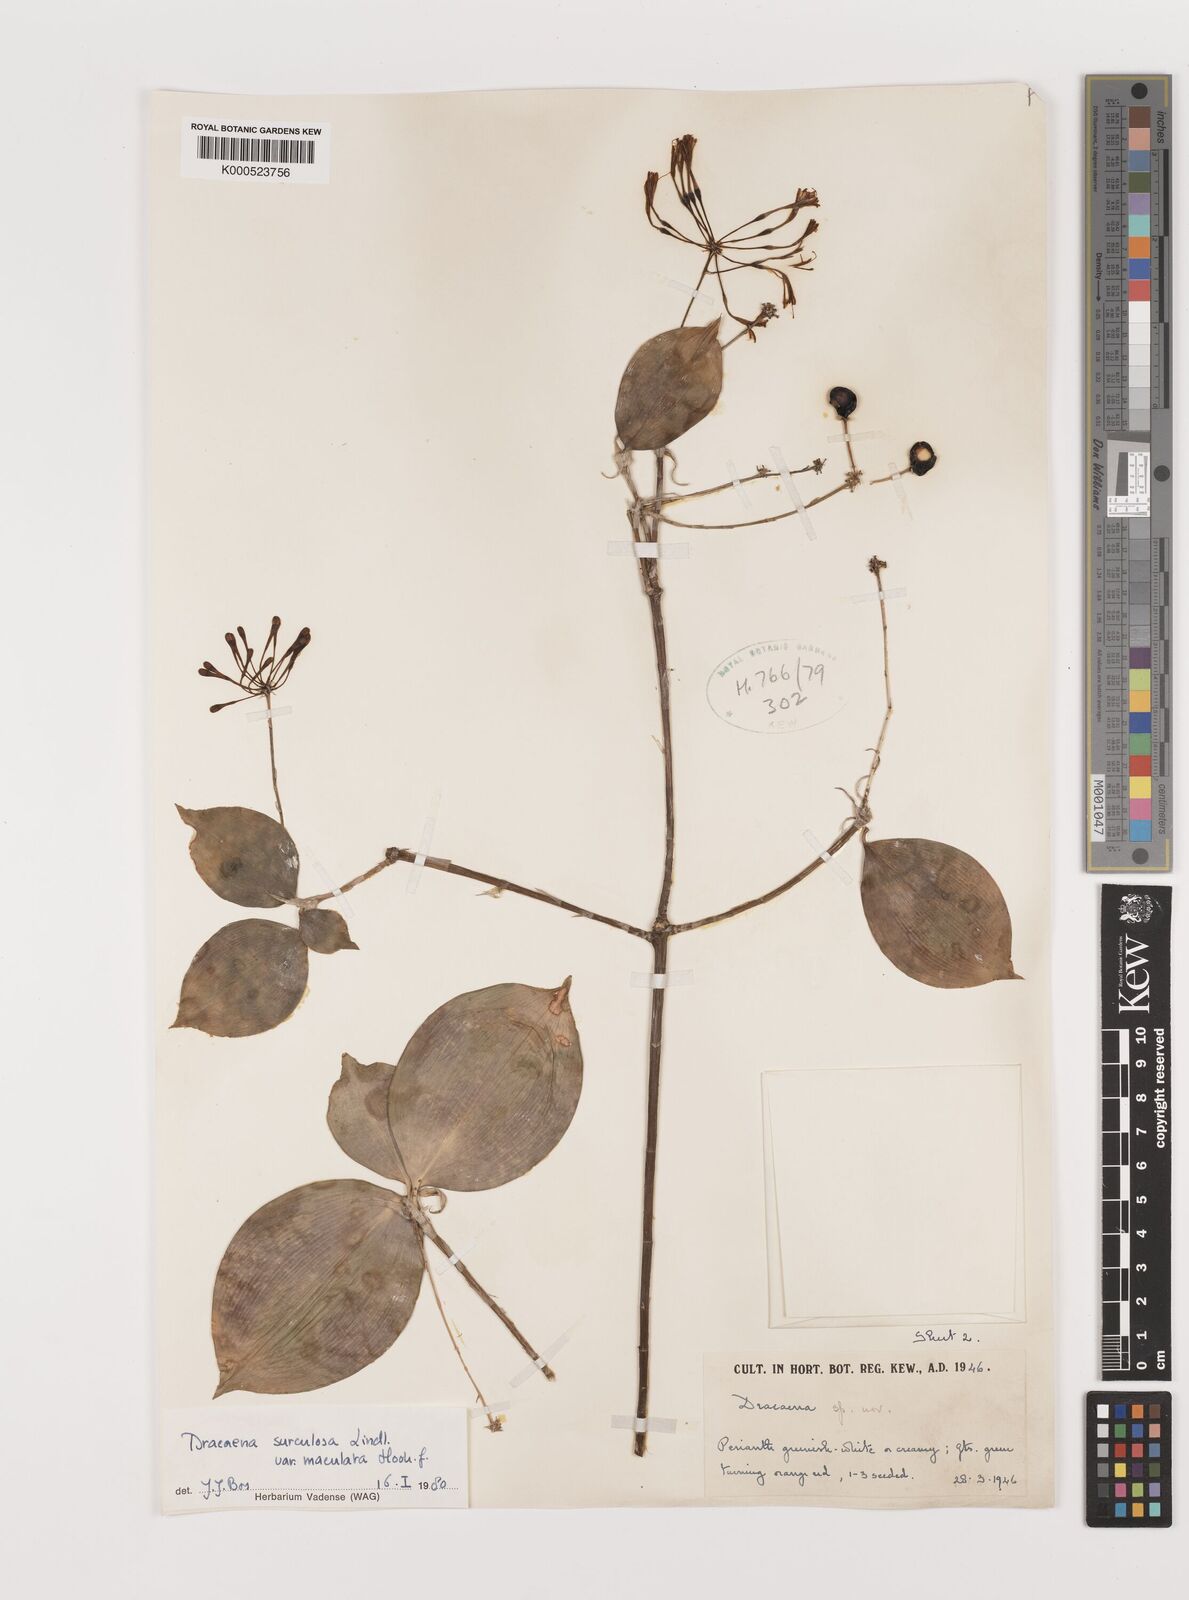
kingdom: Plantae
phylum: Tracheophyta
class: Liliopsida
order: Asparagales
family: Asparagaceae
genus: Dracaena
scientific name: Dracaena surculosa
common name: Spotted dracaena
